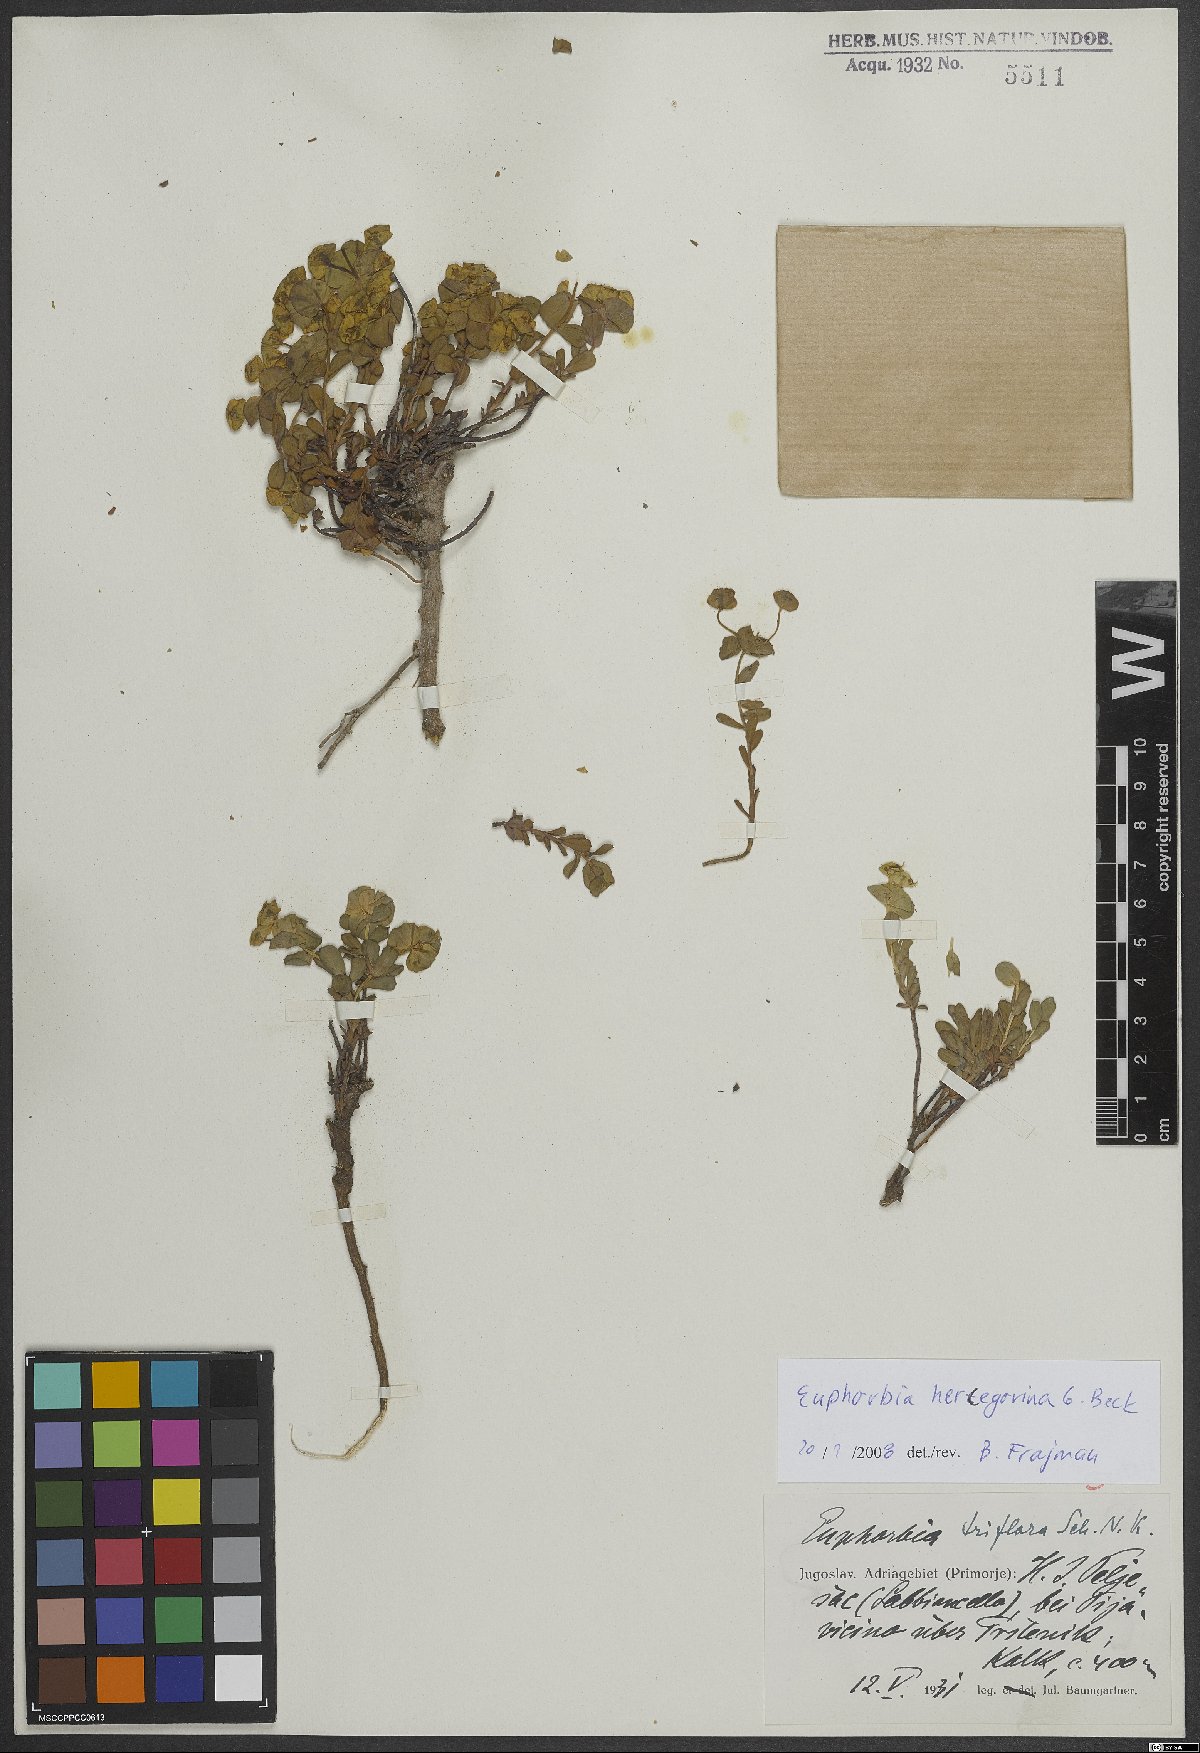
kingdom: Plantae
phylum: Tracheophyta
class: Magnoliopsida
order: Malpighiales
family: Euphorbiaceae
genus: Euphorbia
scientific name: Euphorbia barrelieri
